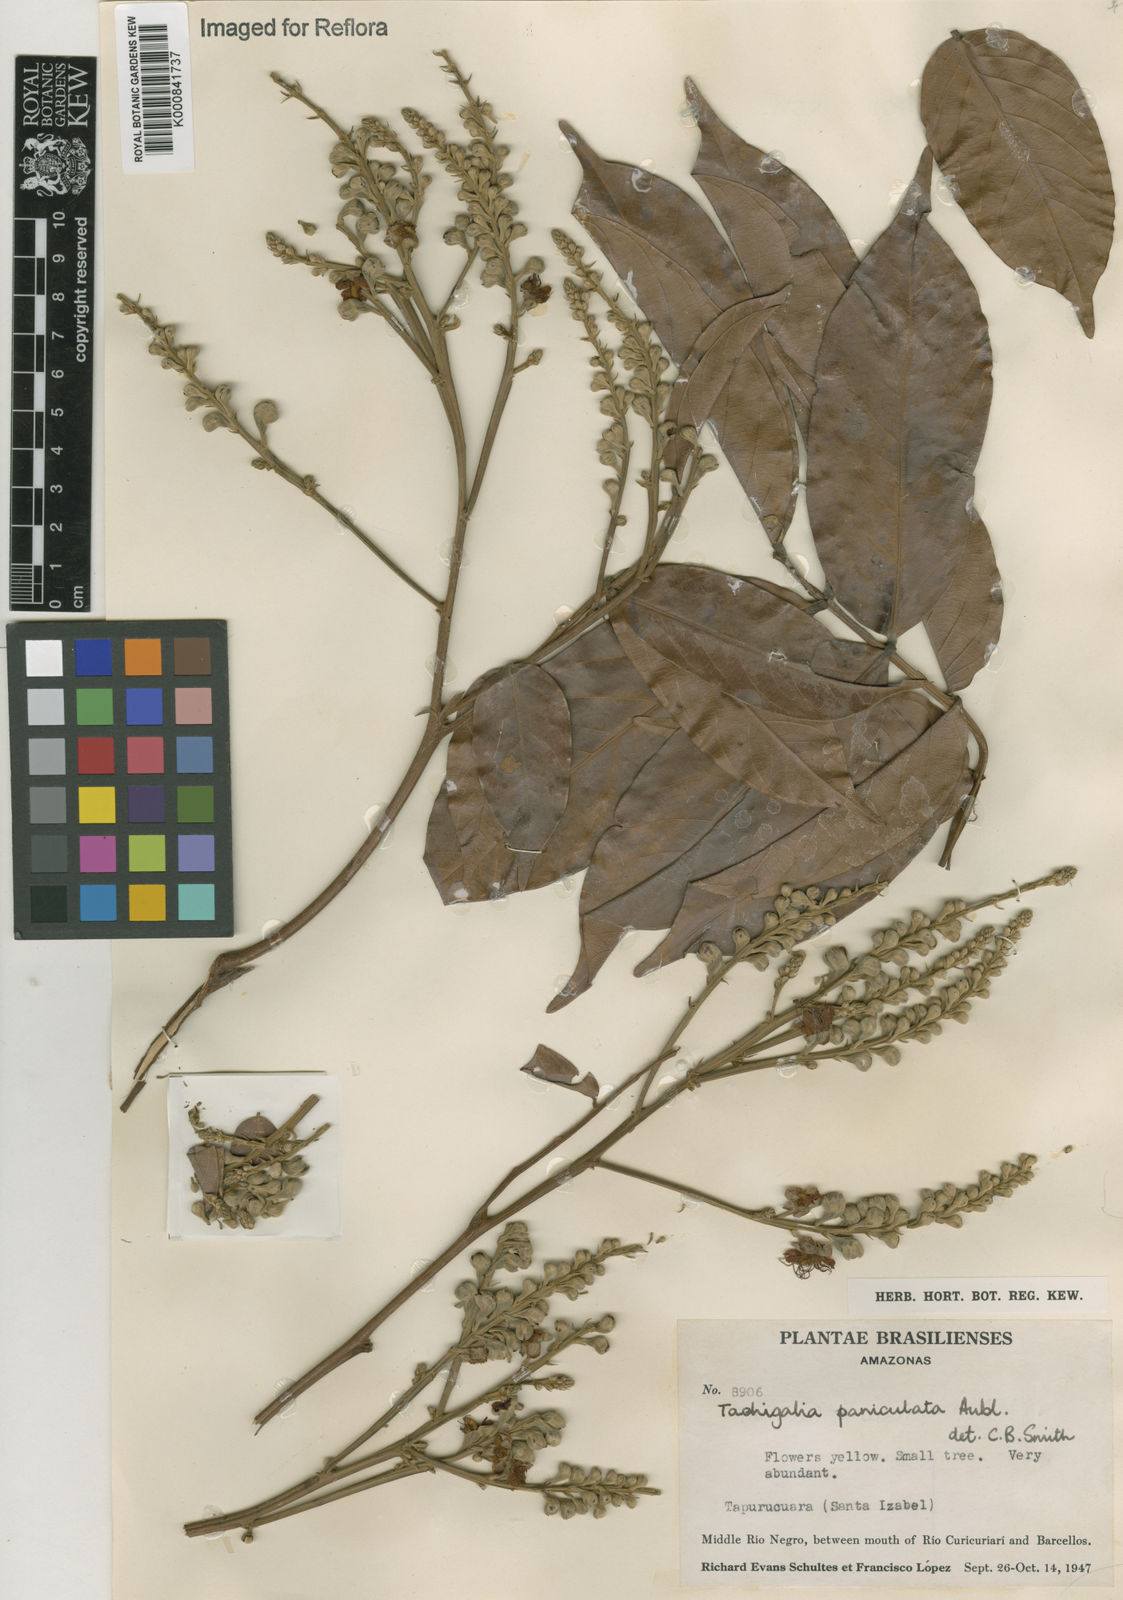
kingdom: Plantae
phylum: Tracheophyta
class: Magnoliopsida
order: Fabales
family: Fabaceae
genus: Tachigali
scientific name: Tachigali paniculata
